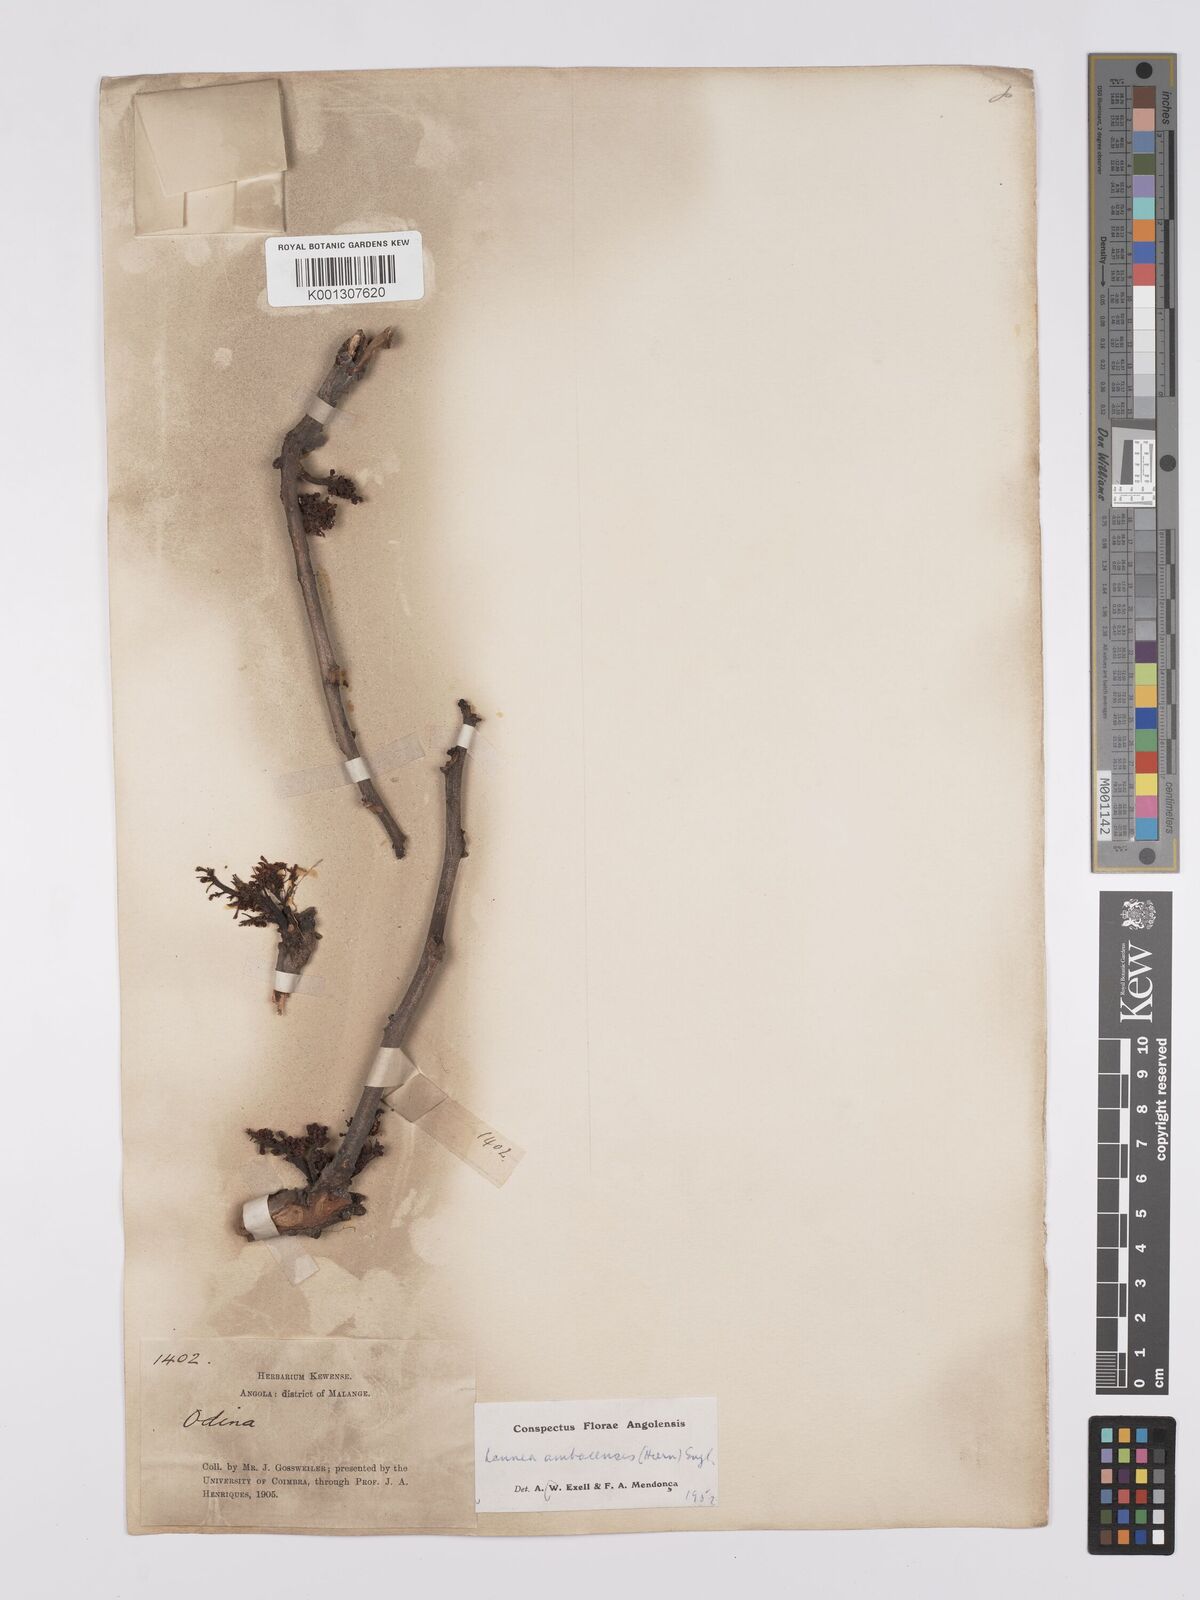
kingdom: Plantae
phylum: Tracheophyta
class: Magnoliopsida
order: Sapindales
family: Anacardiaceae
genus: Lannea
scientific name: Lannea ambacensis
